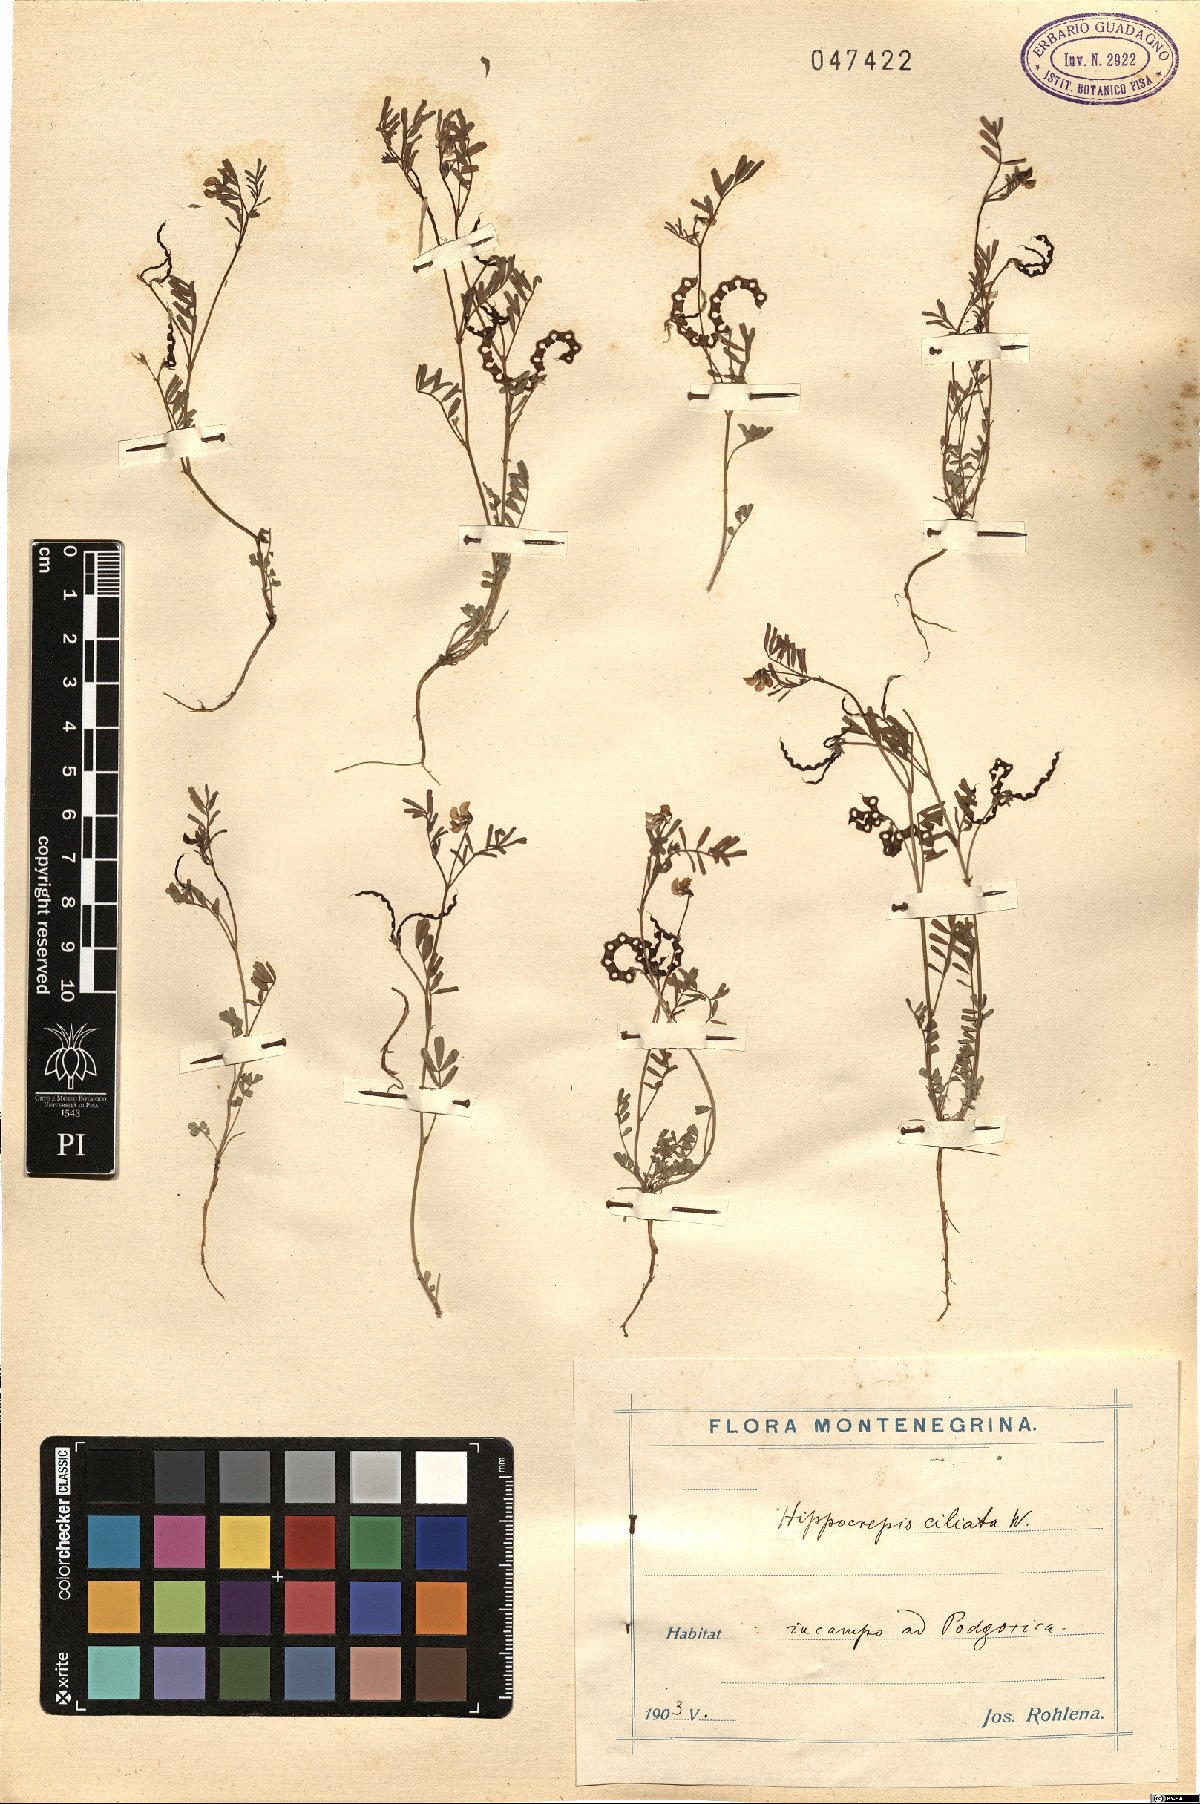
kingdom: Plantae
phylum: Tracheophyta
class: Magnoliopsida
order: Fabales
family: Fabaceae
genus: Hippocrepis
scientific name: Hippocrepis ciliata
